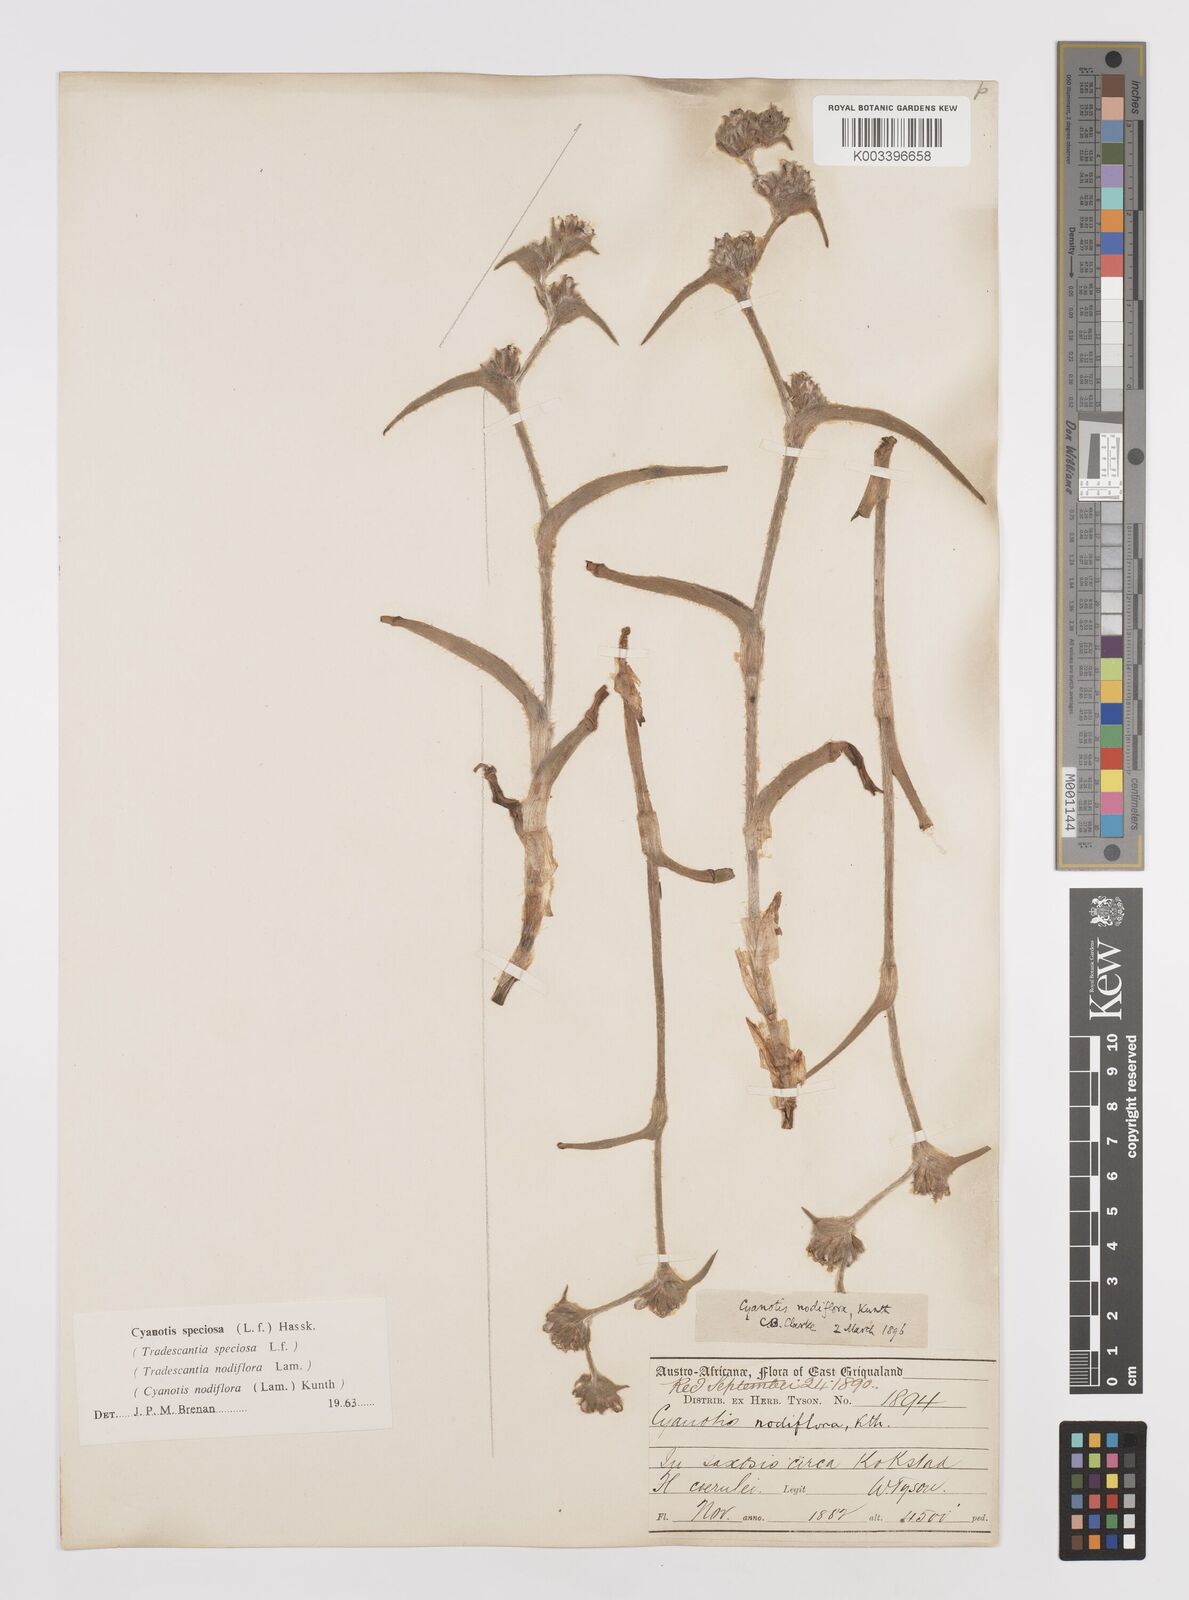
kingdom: Plantae
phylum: Tracheophyta
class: Liliopsida
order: Commelinales
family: Commelinaceae
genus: Cyanotis
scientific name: Cyanotis speciosa
